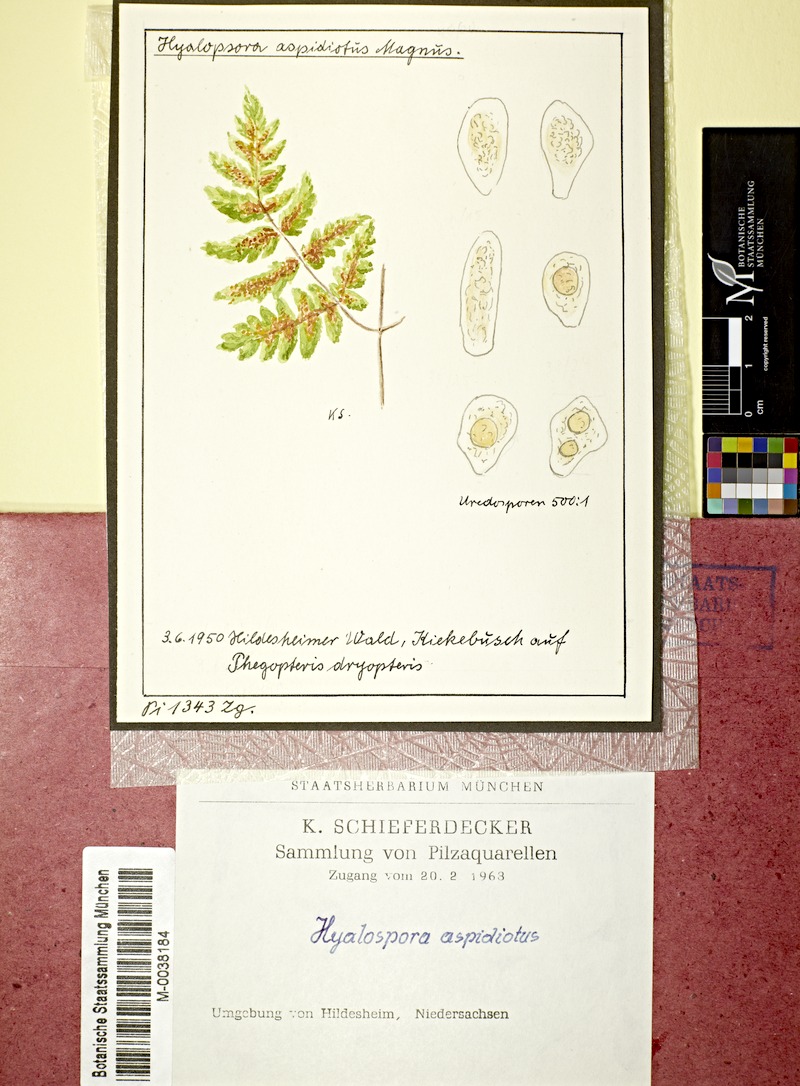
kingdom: Fungi
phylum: Basidiomycota
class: Pucciniomycetes
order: Pucciniales
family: Pucciniastraceae
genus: Hyalopsora
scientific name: Hyalopsora aspidiotus
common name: Oak fern rust
